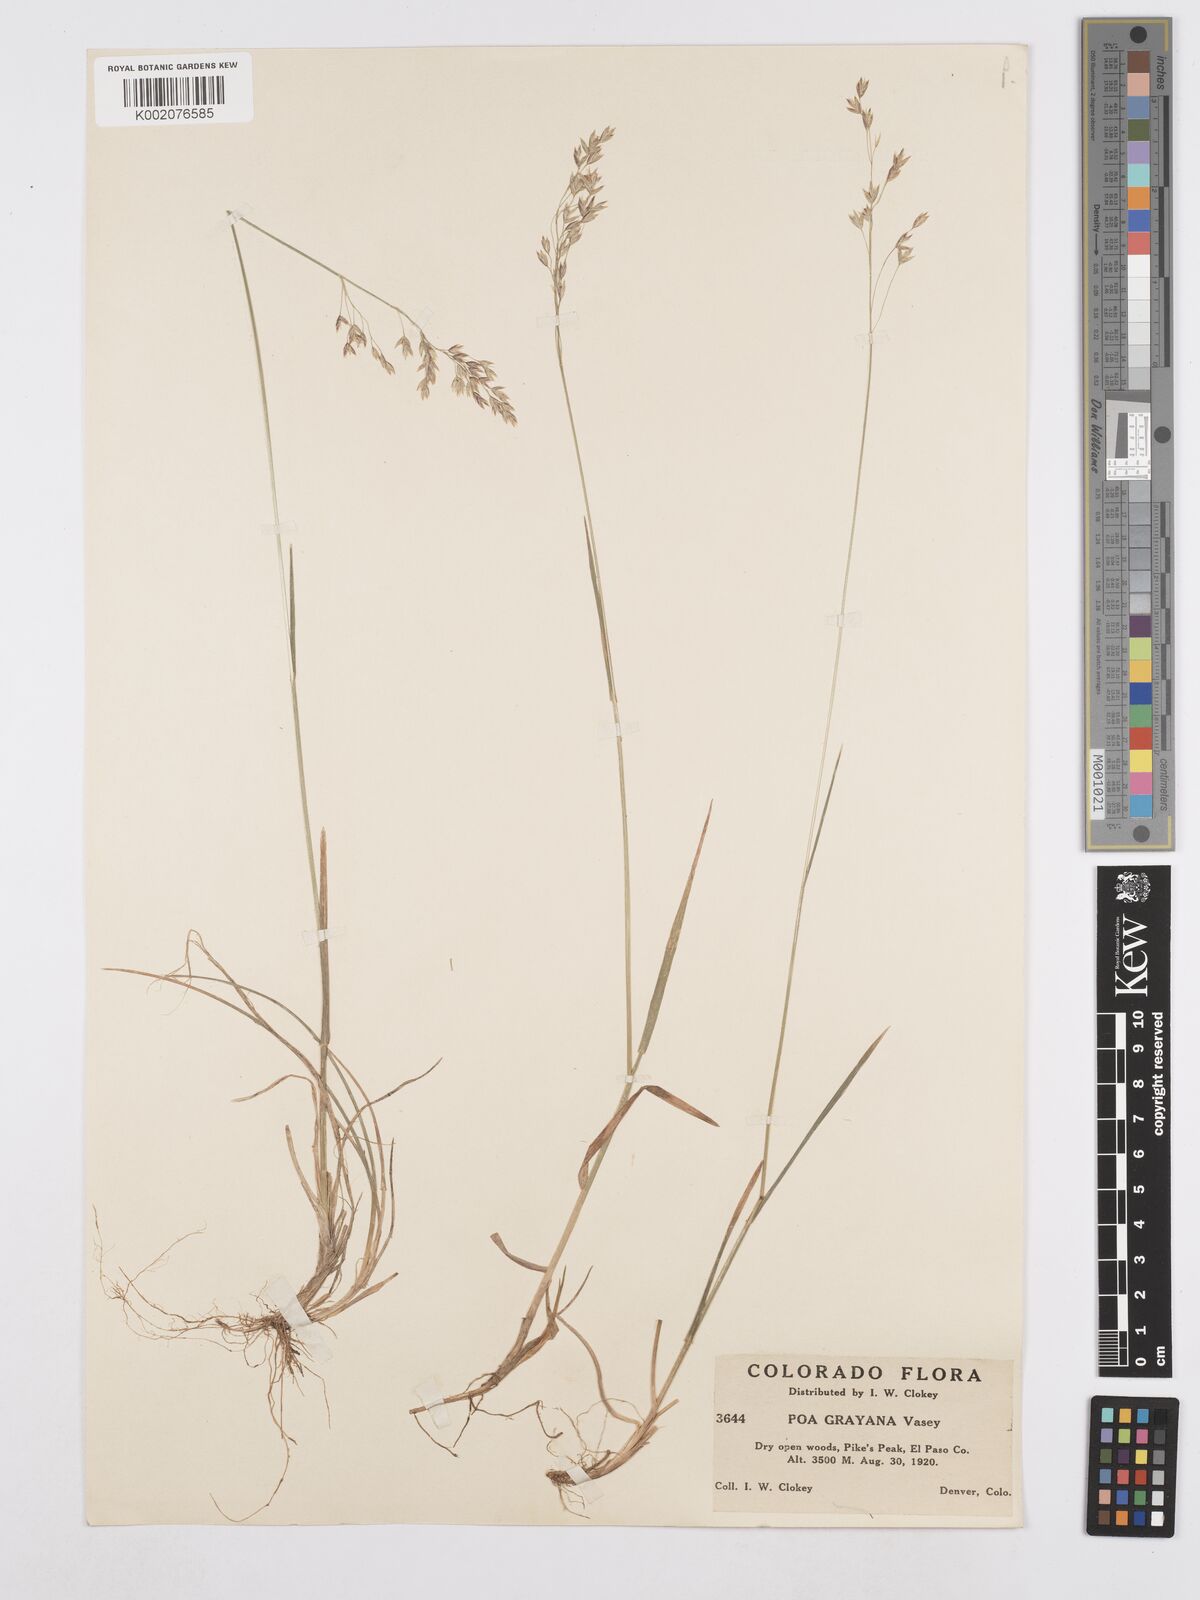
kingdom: Plantae
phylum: Tracheophyta
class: Liliopsida
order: Poales
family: Poaceae
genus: Poa
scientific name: Poa arctica
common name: Arctic bluegrass
